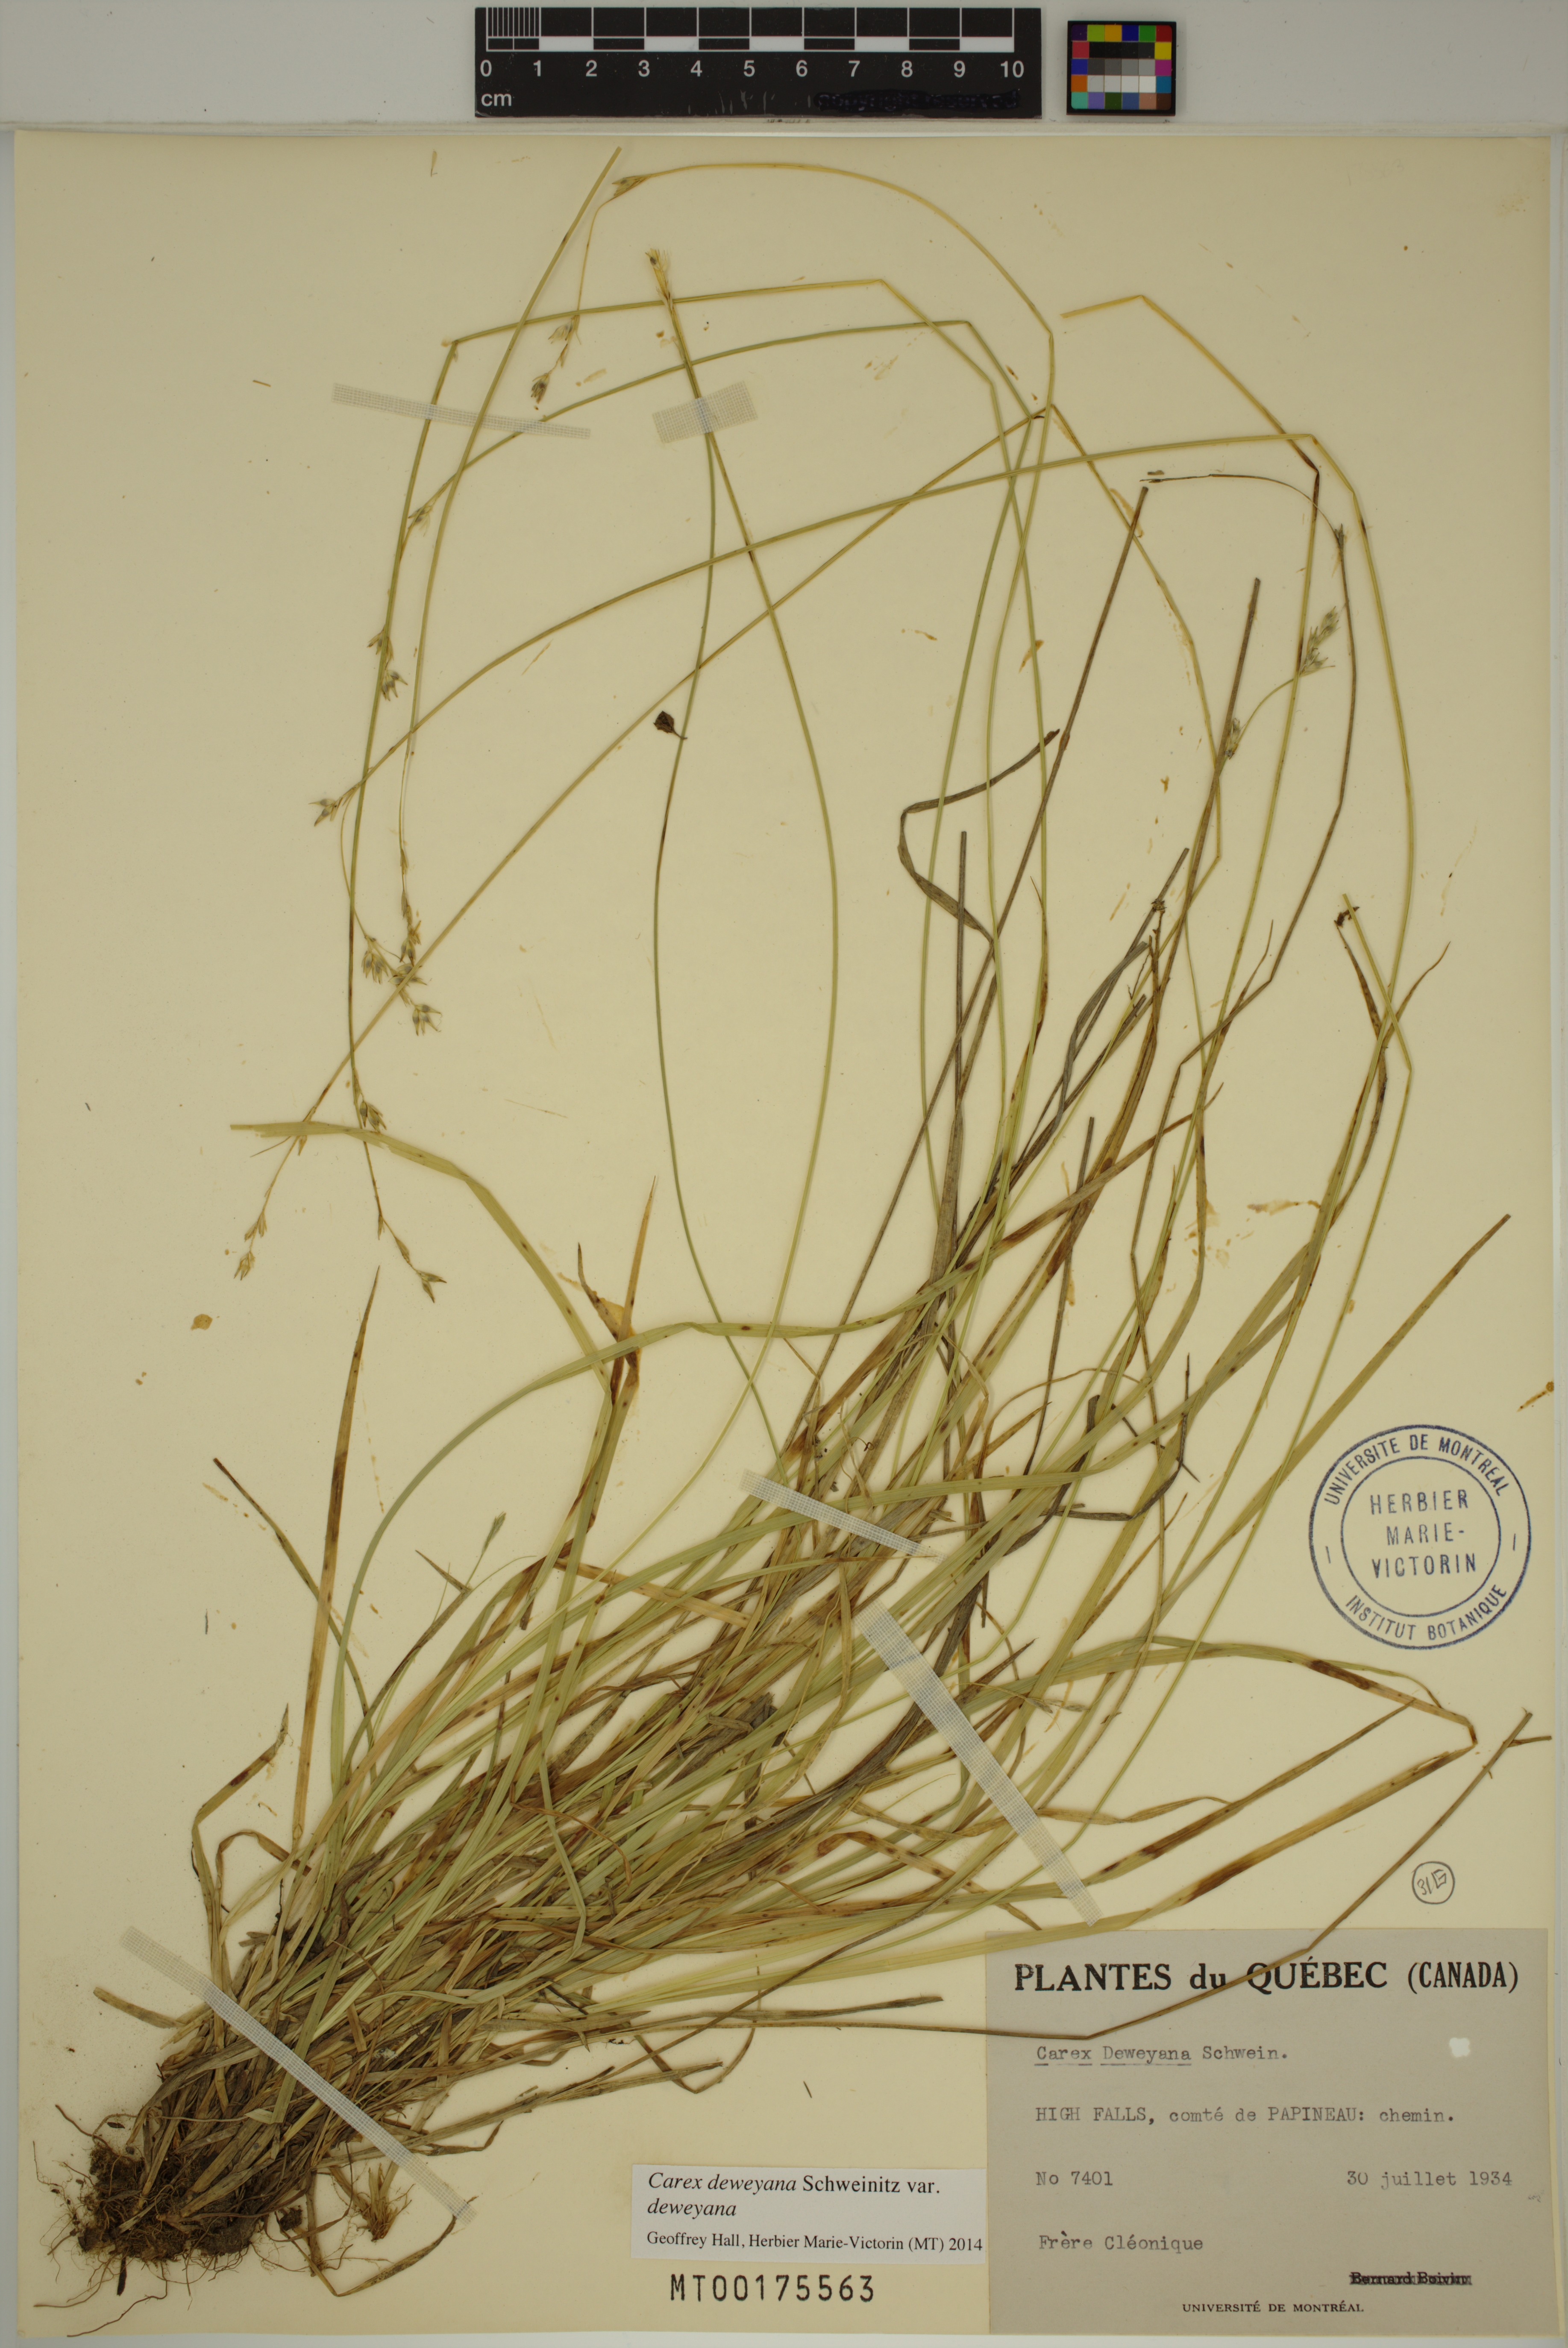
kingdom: Plantae
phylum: Tracheophyta
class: Liliopsida
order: Poales
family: Cyperaceae
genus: Carex
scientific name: Carex deweyana
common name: Dewey's sedge
